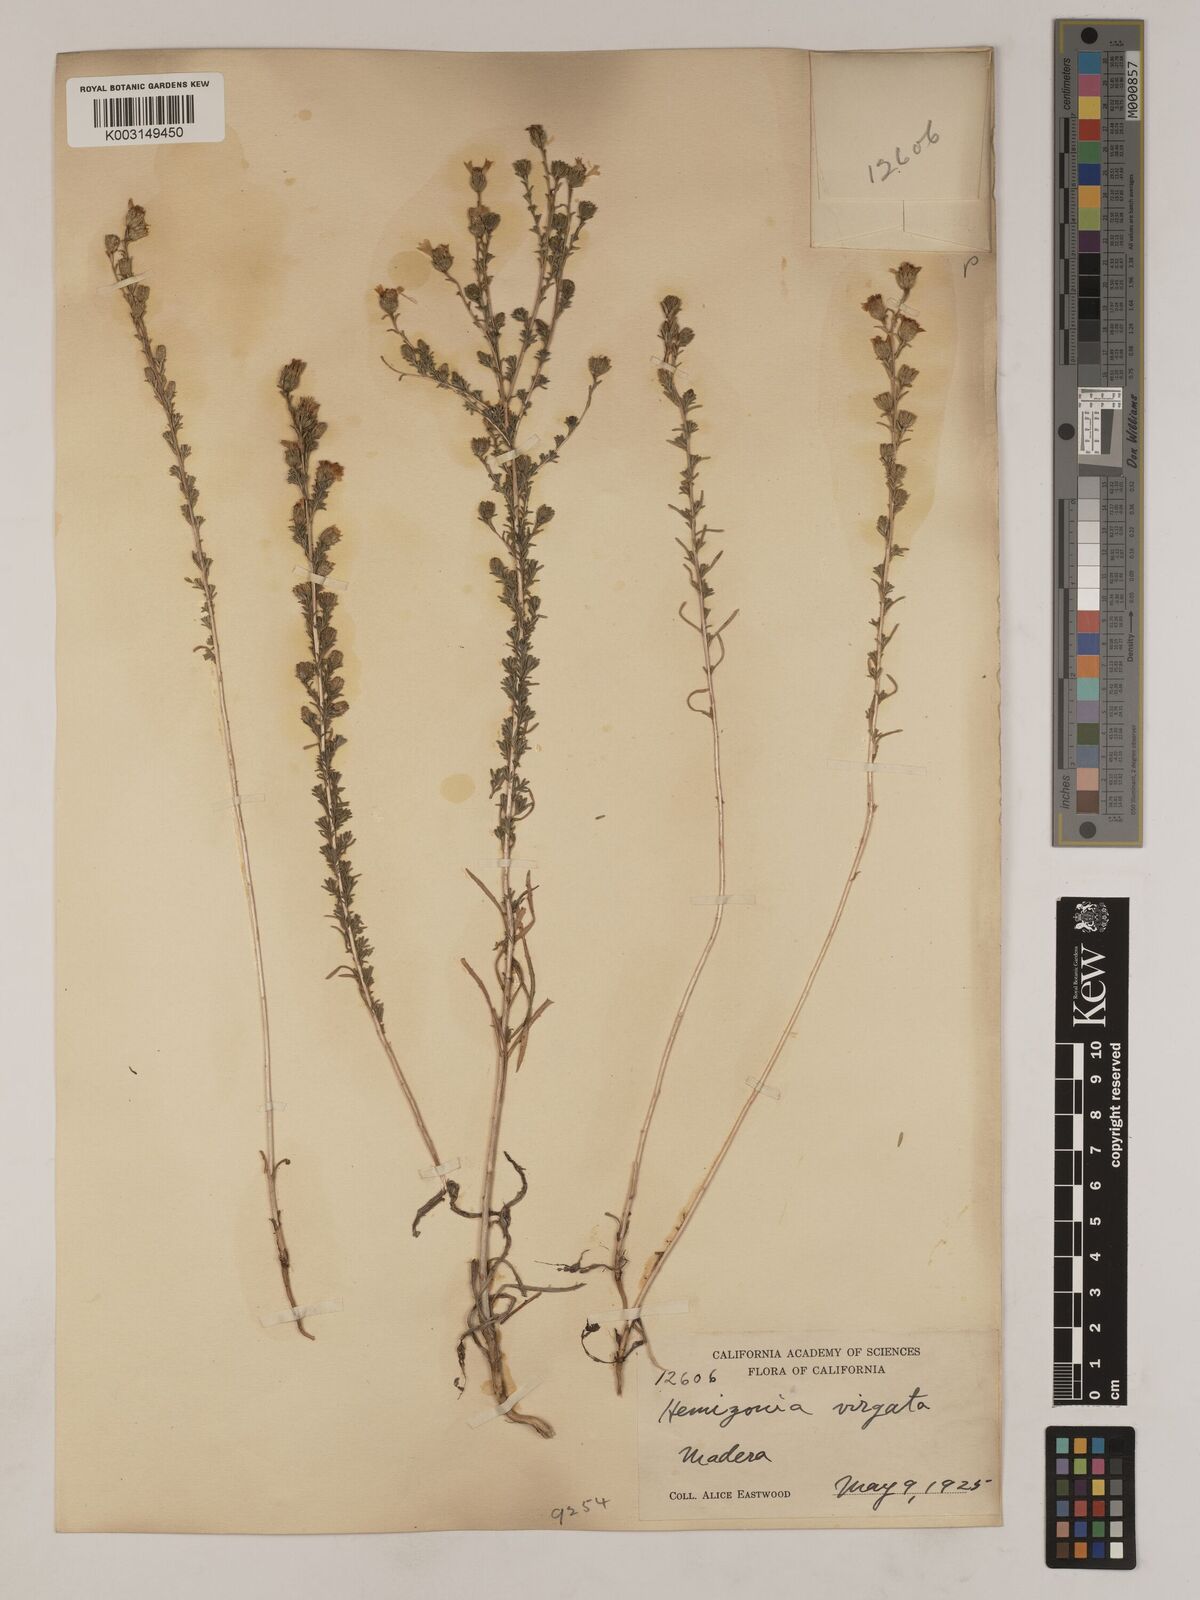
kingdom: Plantae
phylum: Tracheophyta
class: Magnoliopsida
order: Asterales
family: Asteraceae
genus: Holocarpha
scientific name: Holocarpha virgata
